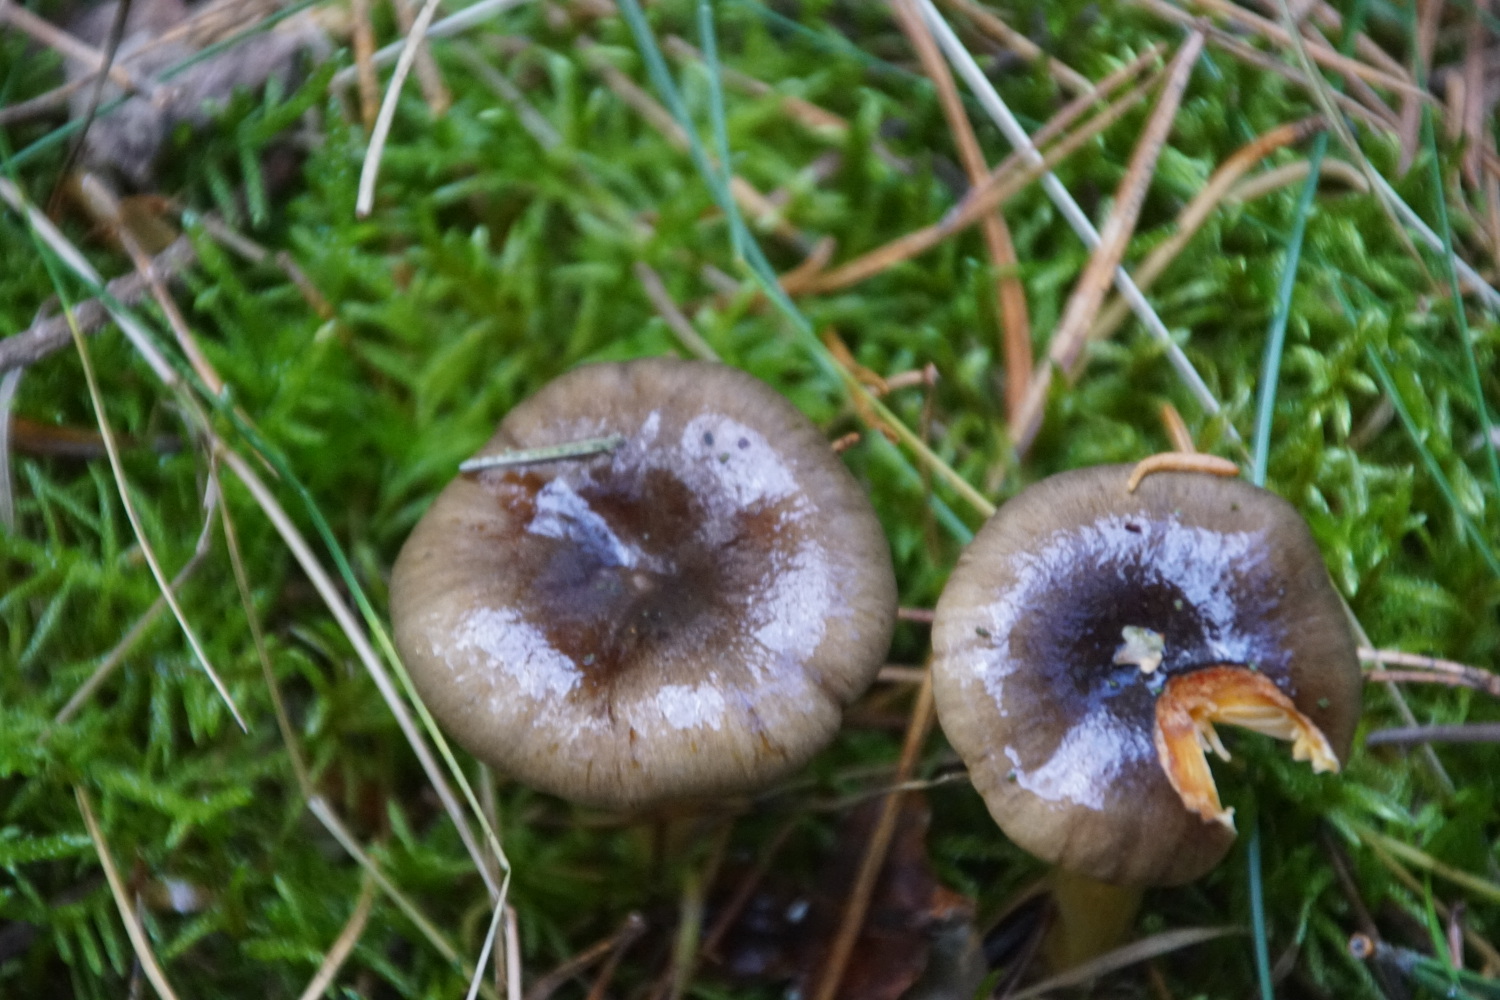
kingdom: Fungi
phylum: Basidiomycota
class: Agaricomycetes
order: Agaricales
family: Hygrophoraceae
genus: Hygrophorus
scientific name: Hygrophorus hypothejus
